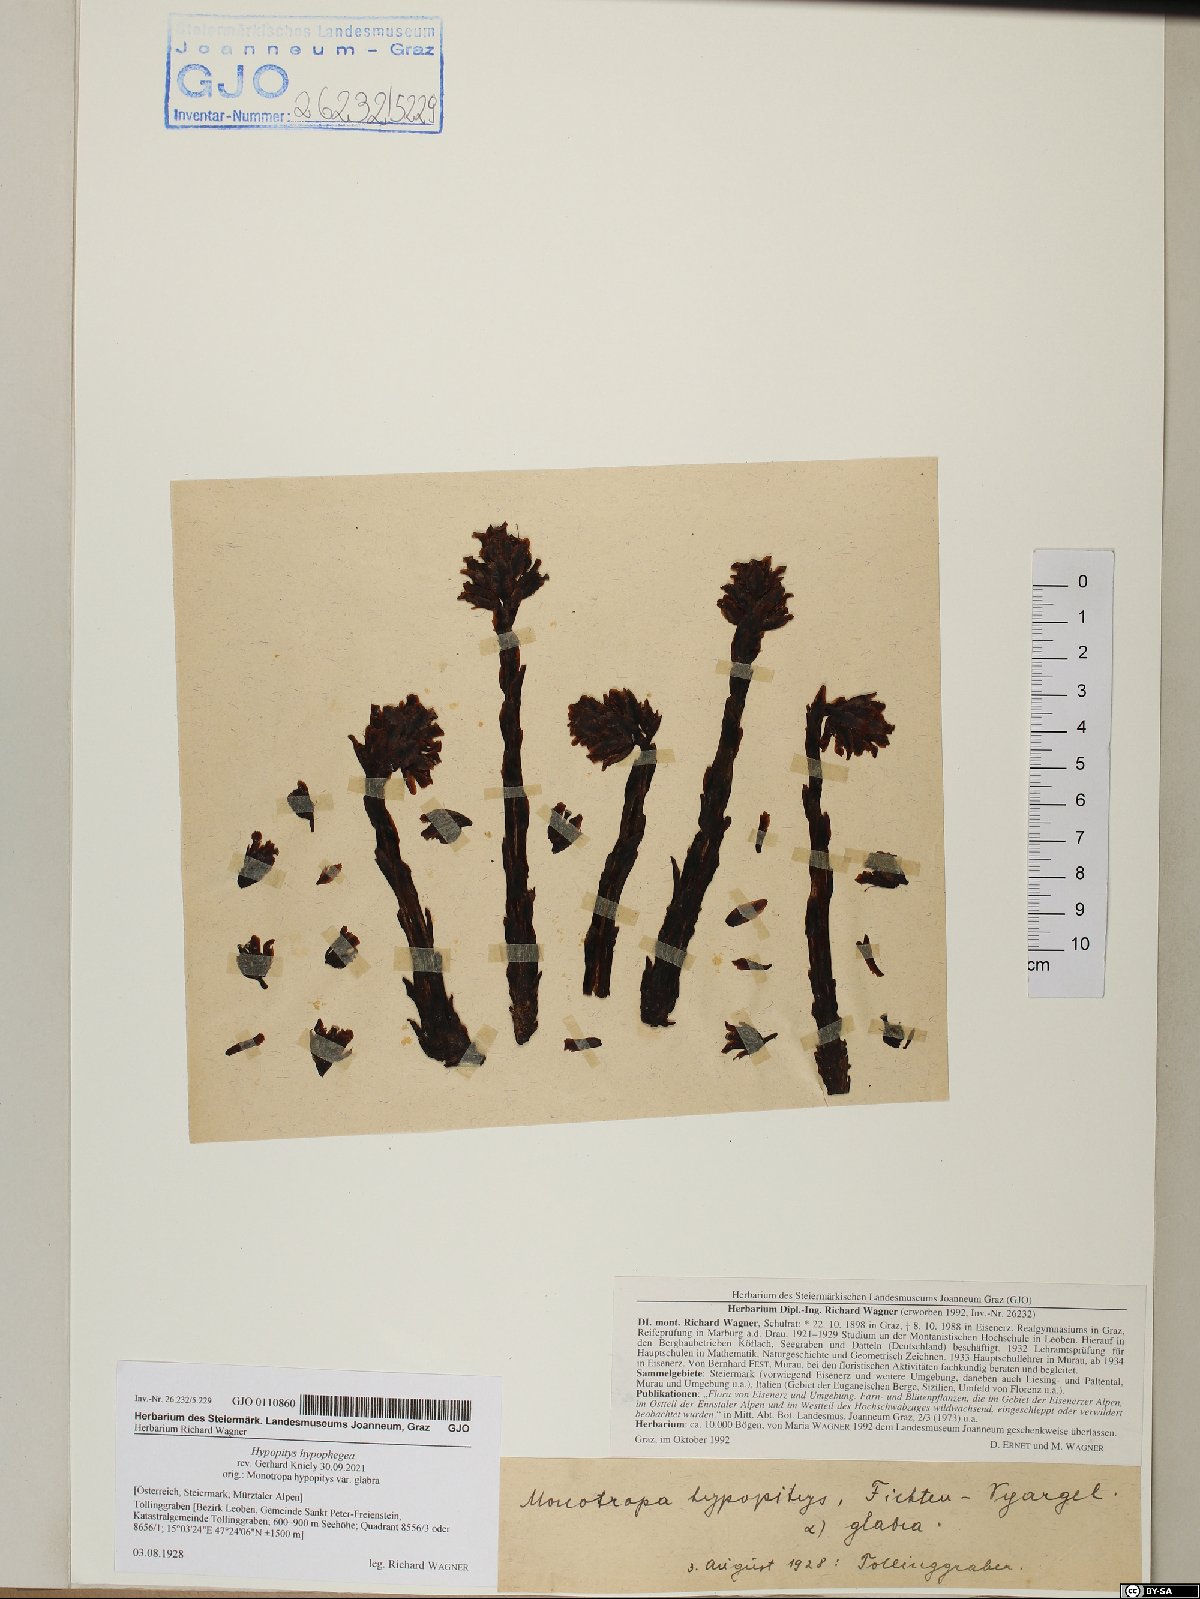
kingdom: Plantae
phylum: Tracheophyta
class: Magnoliopsida
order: Ericales
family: Ericaceae
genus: Hypopitys
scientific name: Hypopitys hypophegea
